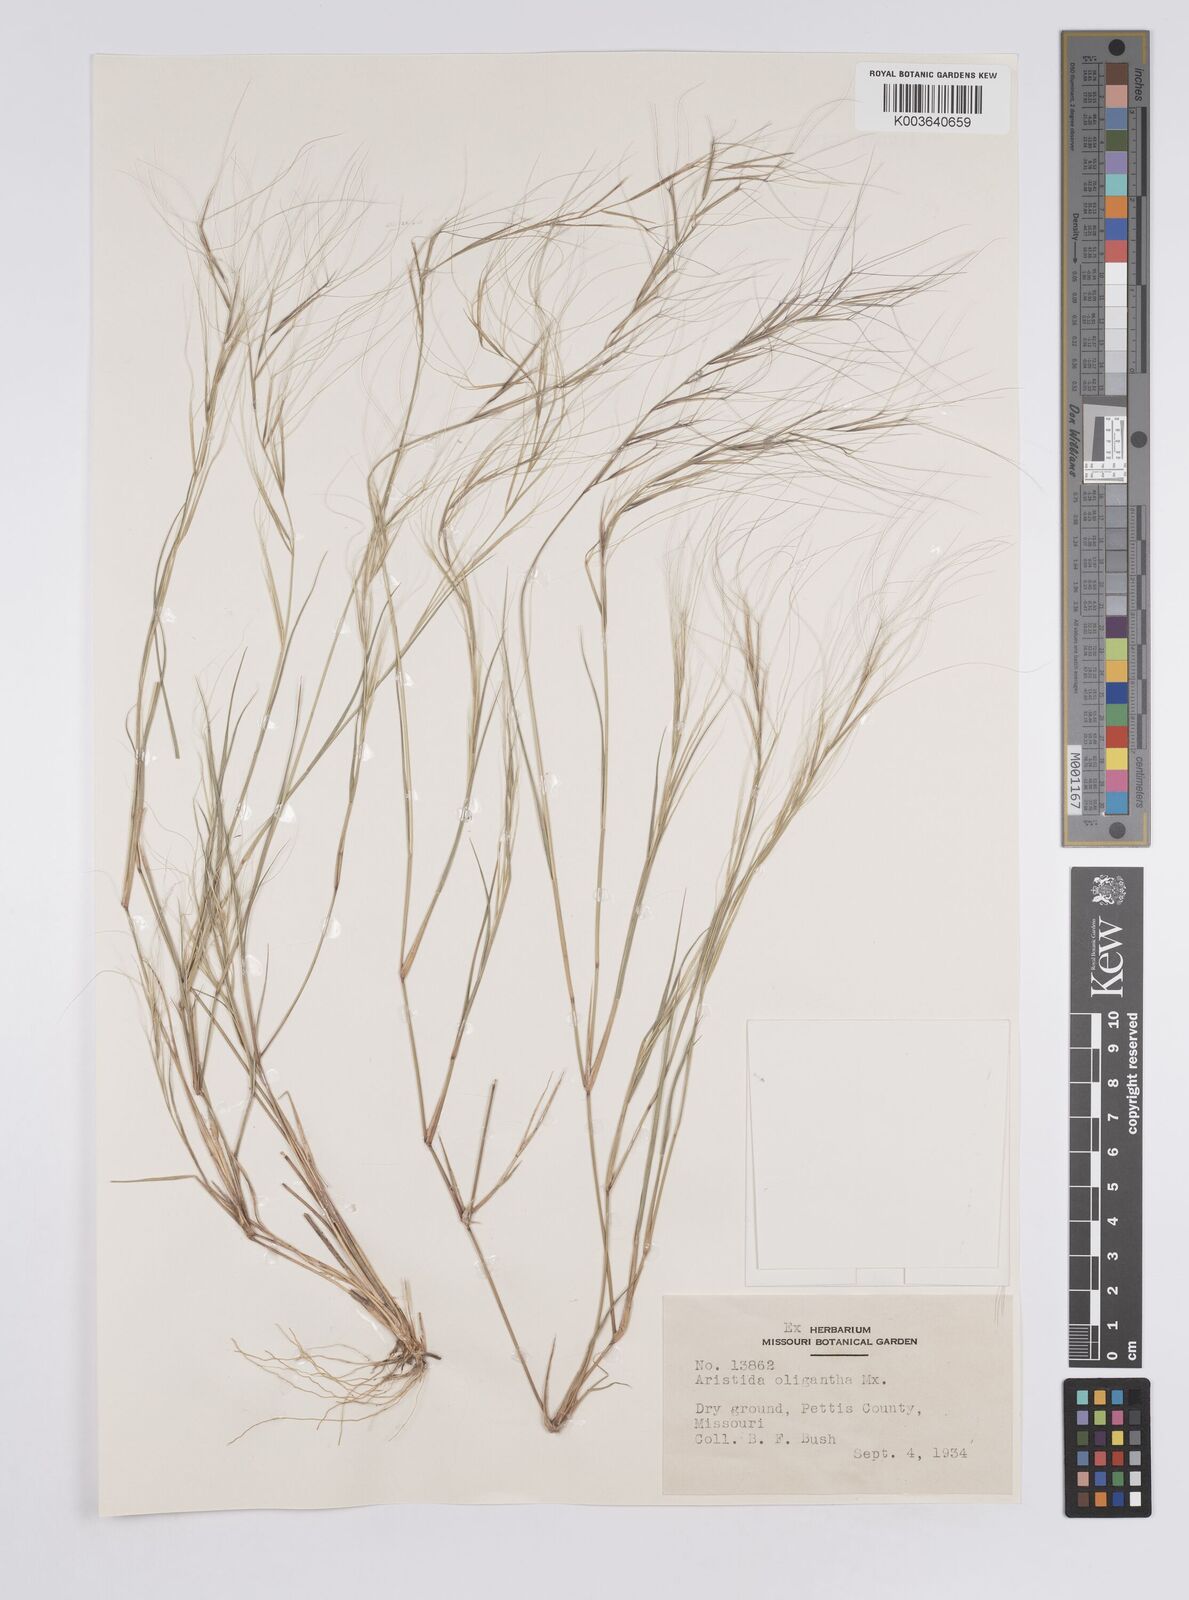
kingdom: Plantae
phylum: Tracheophyta
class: Liliopsida
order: Poales
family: Poaceae
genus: Aristida
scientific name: Aristida oligantha
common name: Few-flowered aristida
